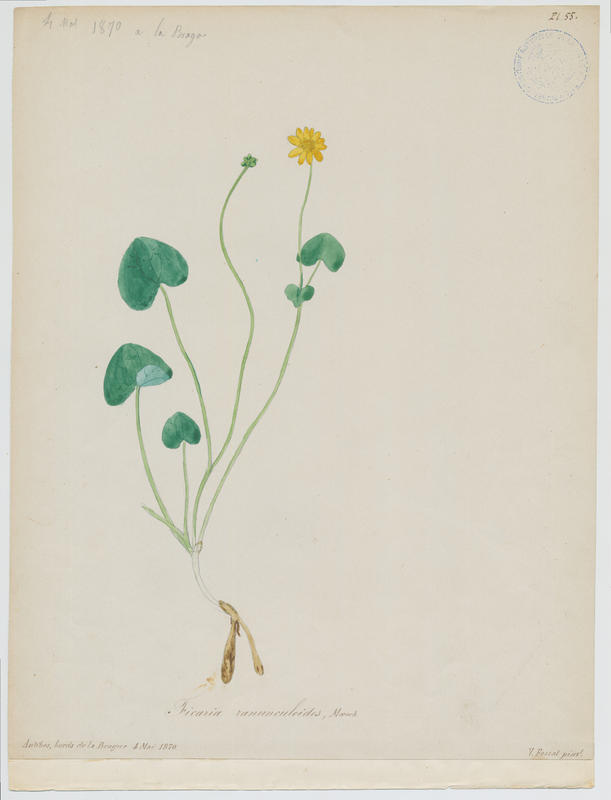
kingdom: Plantae
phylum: Tracheophyta
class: Magnoliopsida
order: Ranunculales
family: Ranunculaceae
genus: Ficaria
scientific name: Ficaria verna
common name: Lesser celandine
